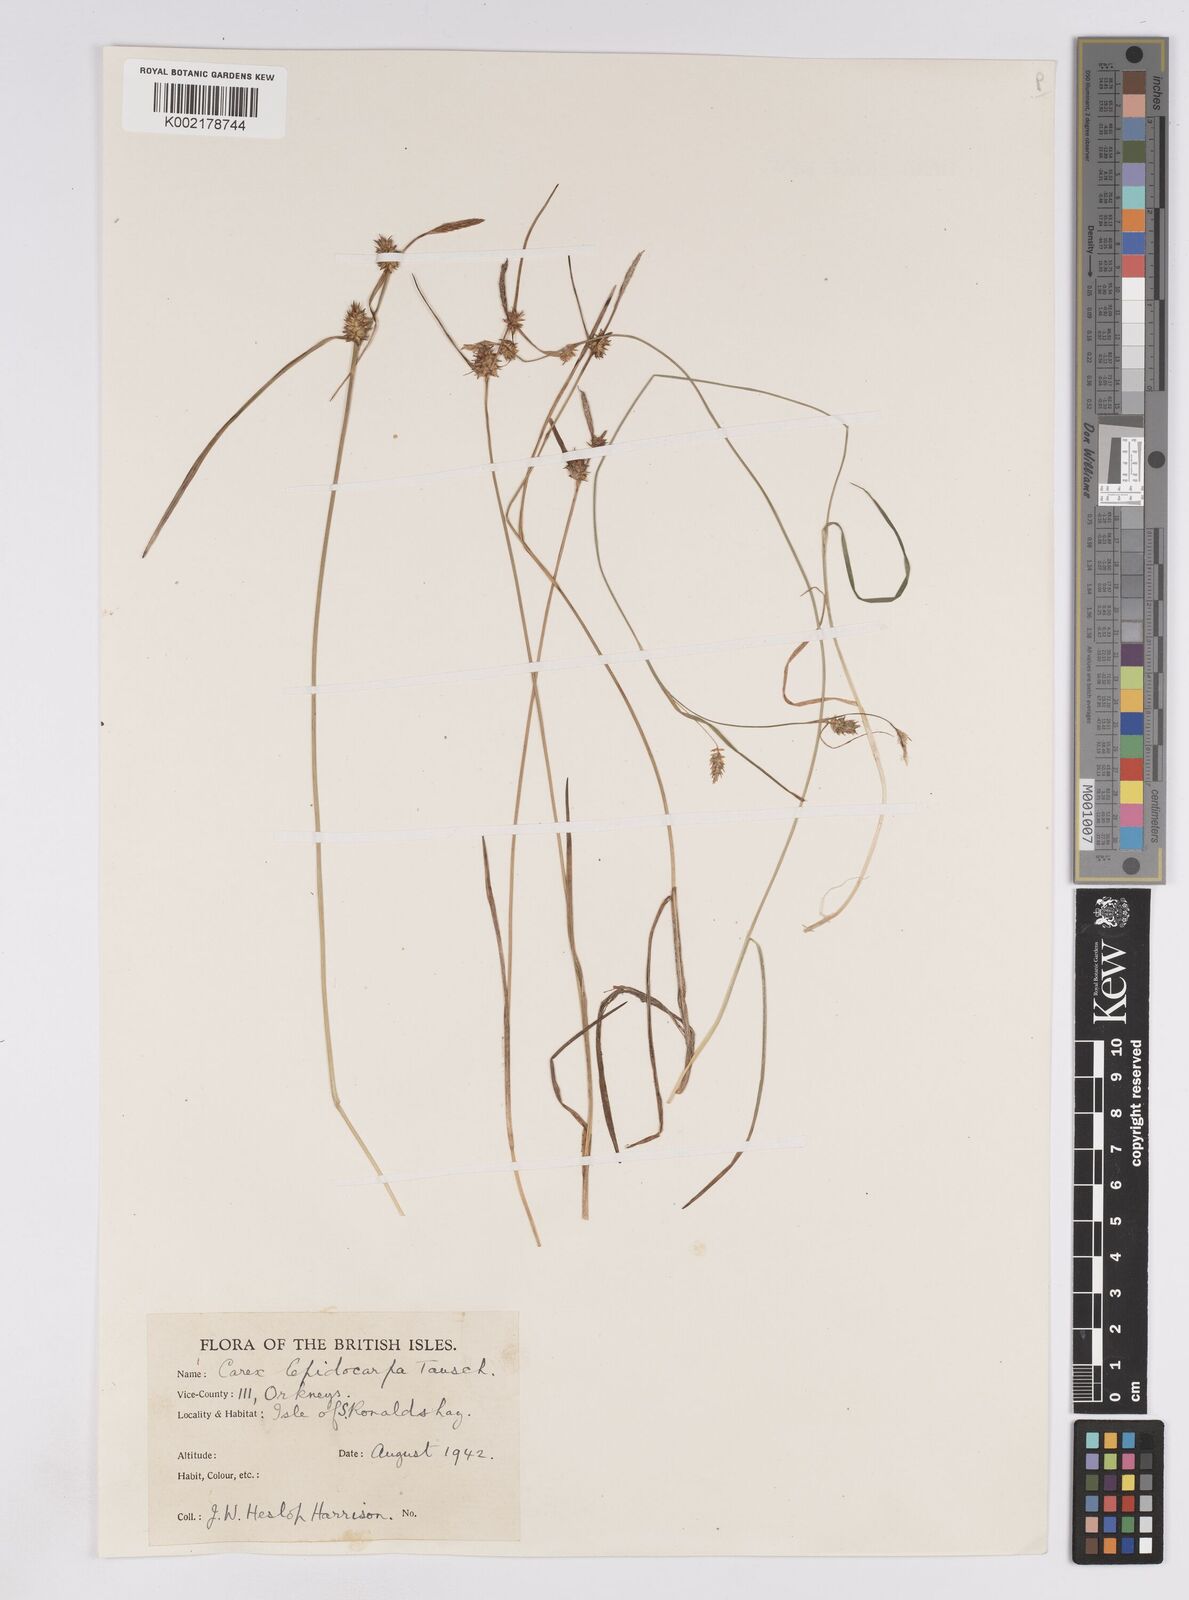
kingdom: Plantae
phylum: Tracheophyta
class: Liliopsida
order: Poales
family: Cyperaceae
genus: Carex
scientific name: Carex lepidocarpa
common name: Long-stalked yellow-sedge
